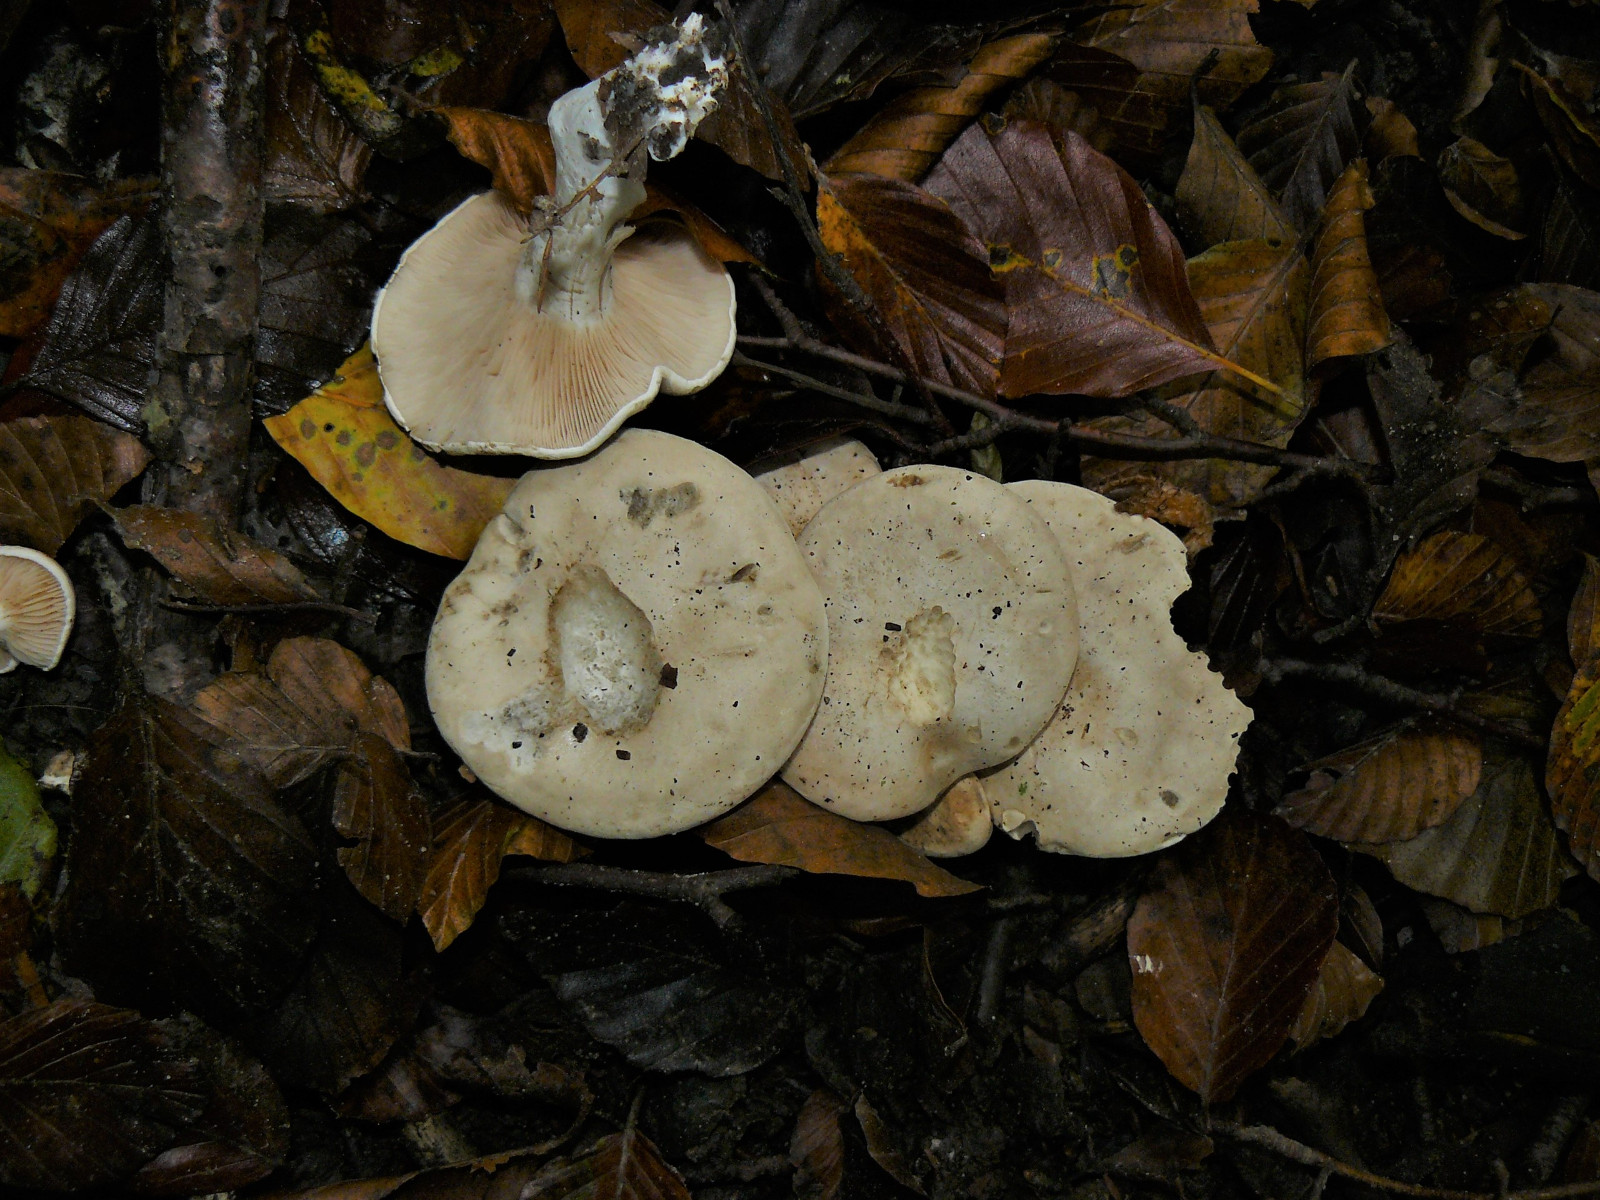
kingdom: Fungi
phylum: Basidiomycota
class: Agaricomycetes
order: Agaricales
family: Entolomataceae
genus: Clitopilus
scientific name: Clitopilus prunulus
